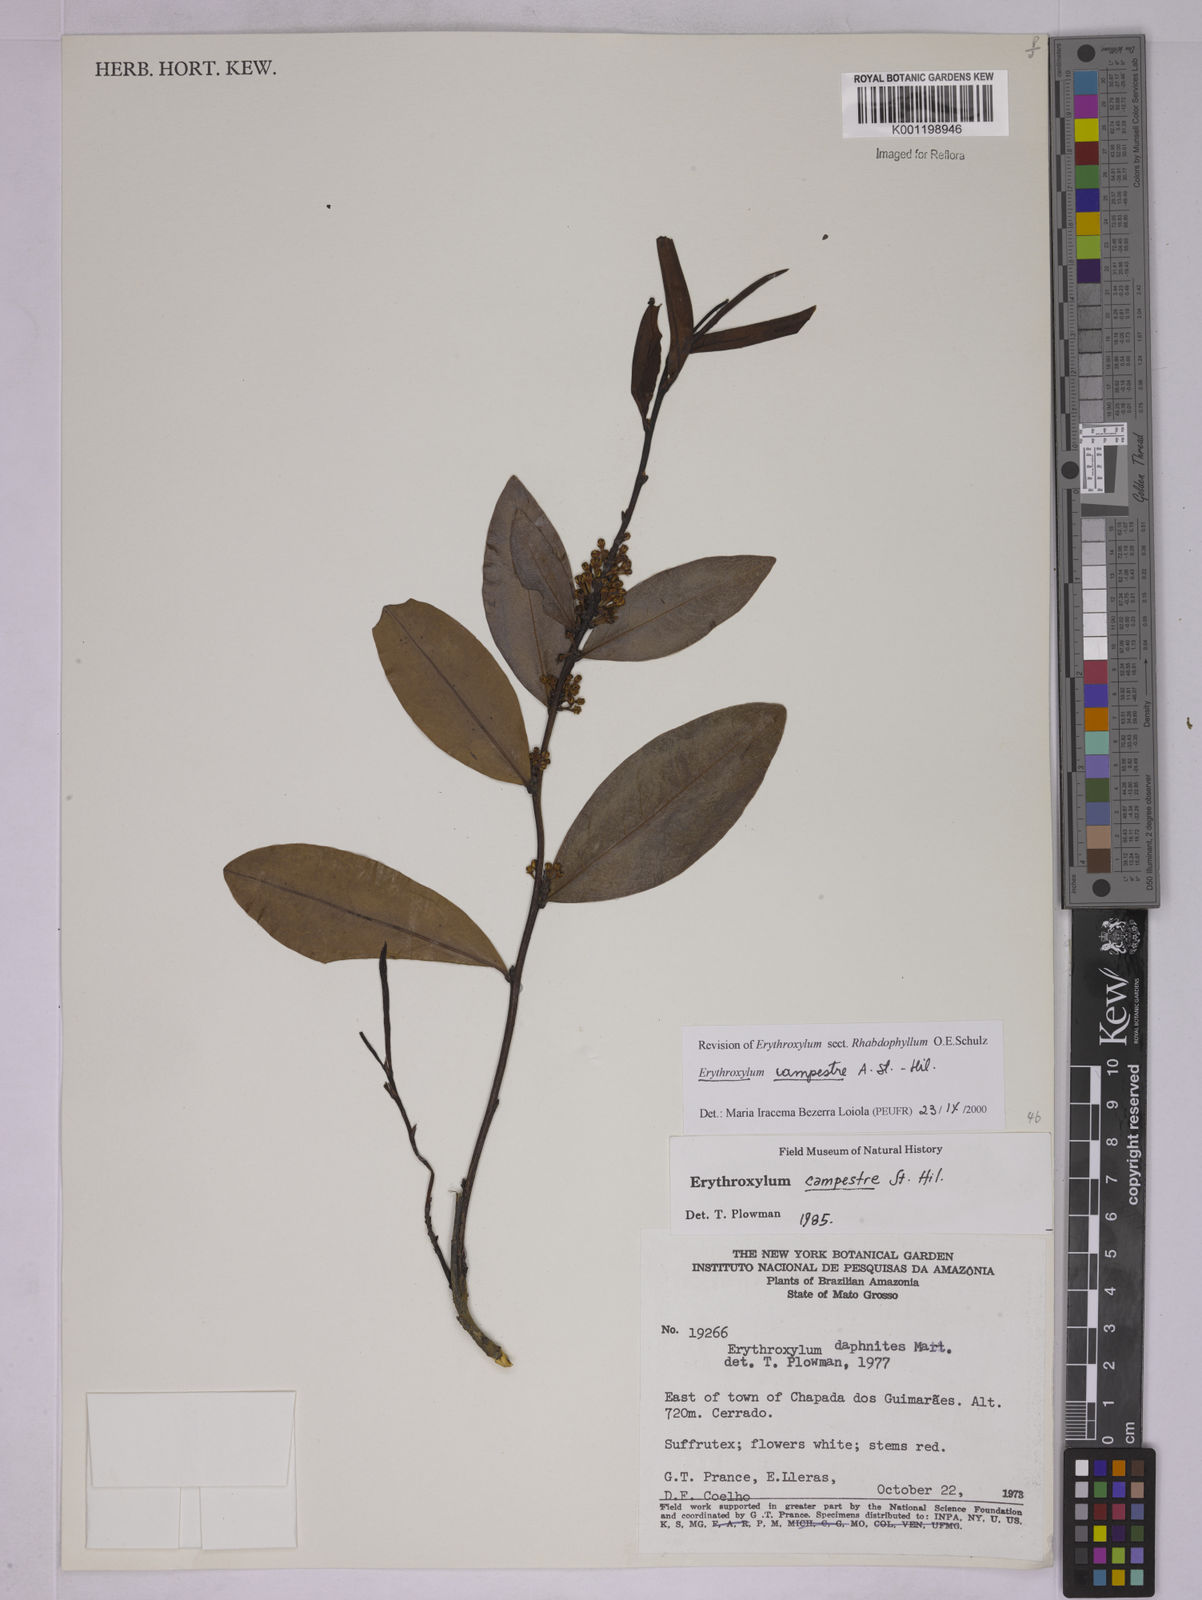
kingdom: Plantae
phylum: Tracheophyta
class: Magnoliopsida
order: Malpighiales
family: Erythroxylaceae
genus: Erythroxylum
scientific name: Erythroxylum campestre
